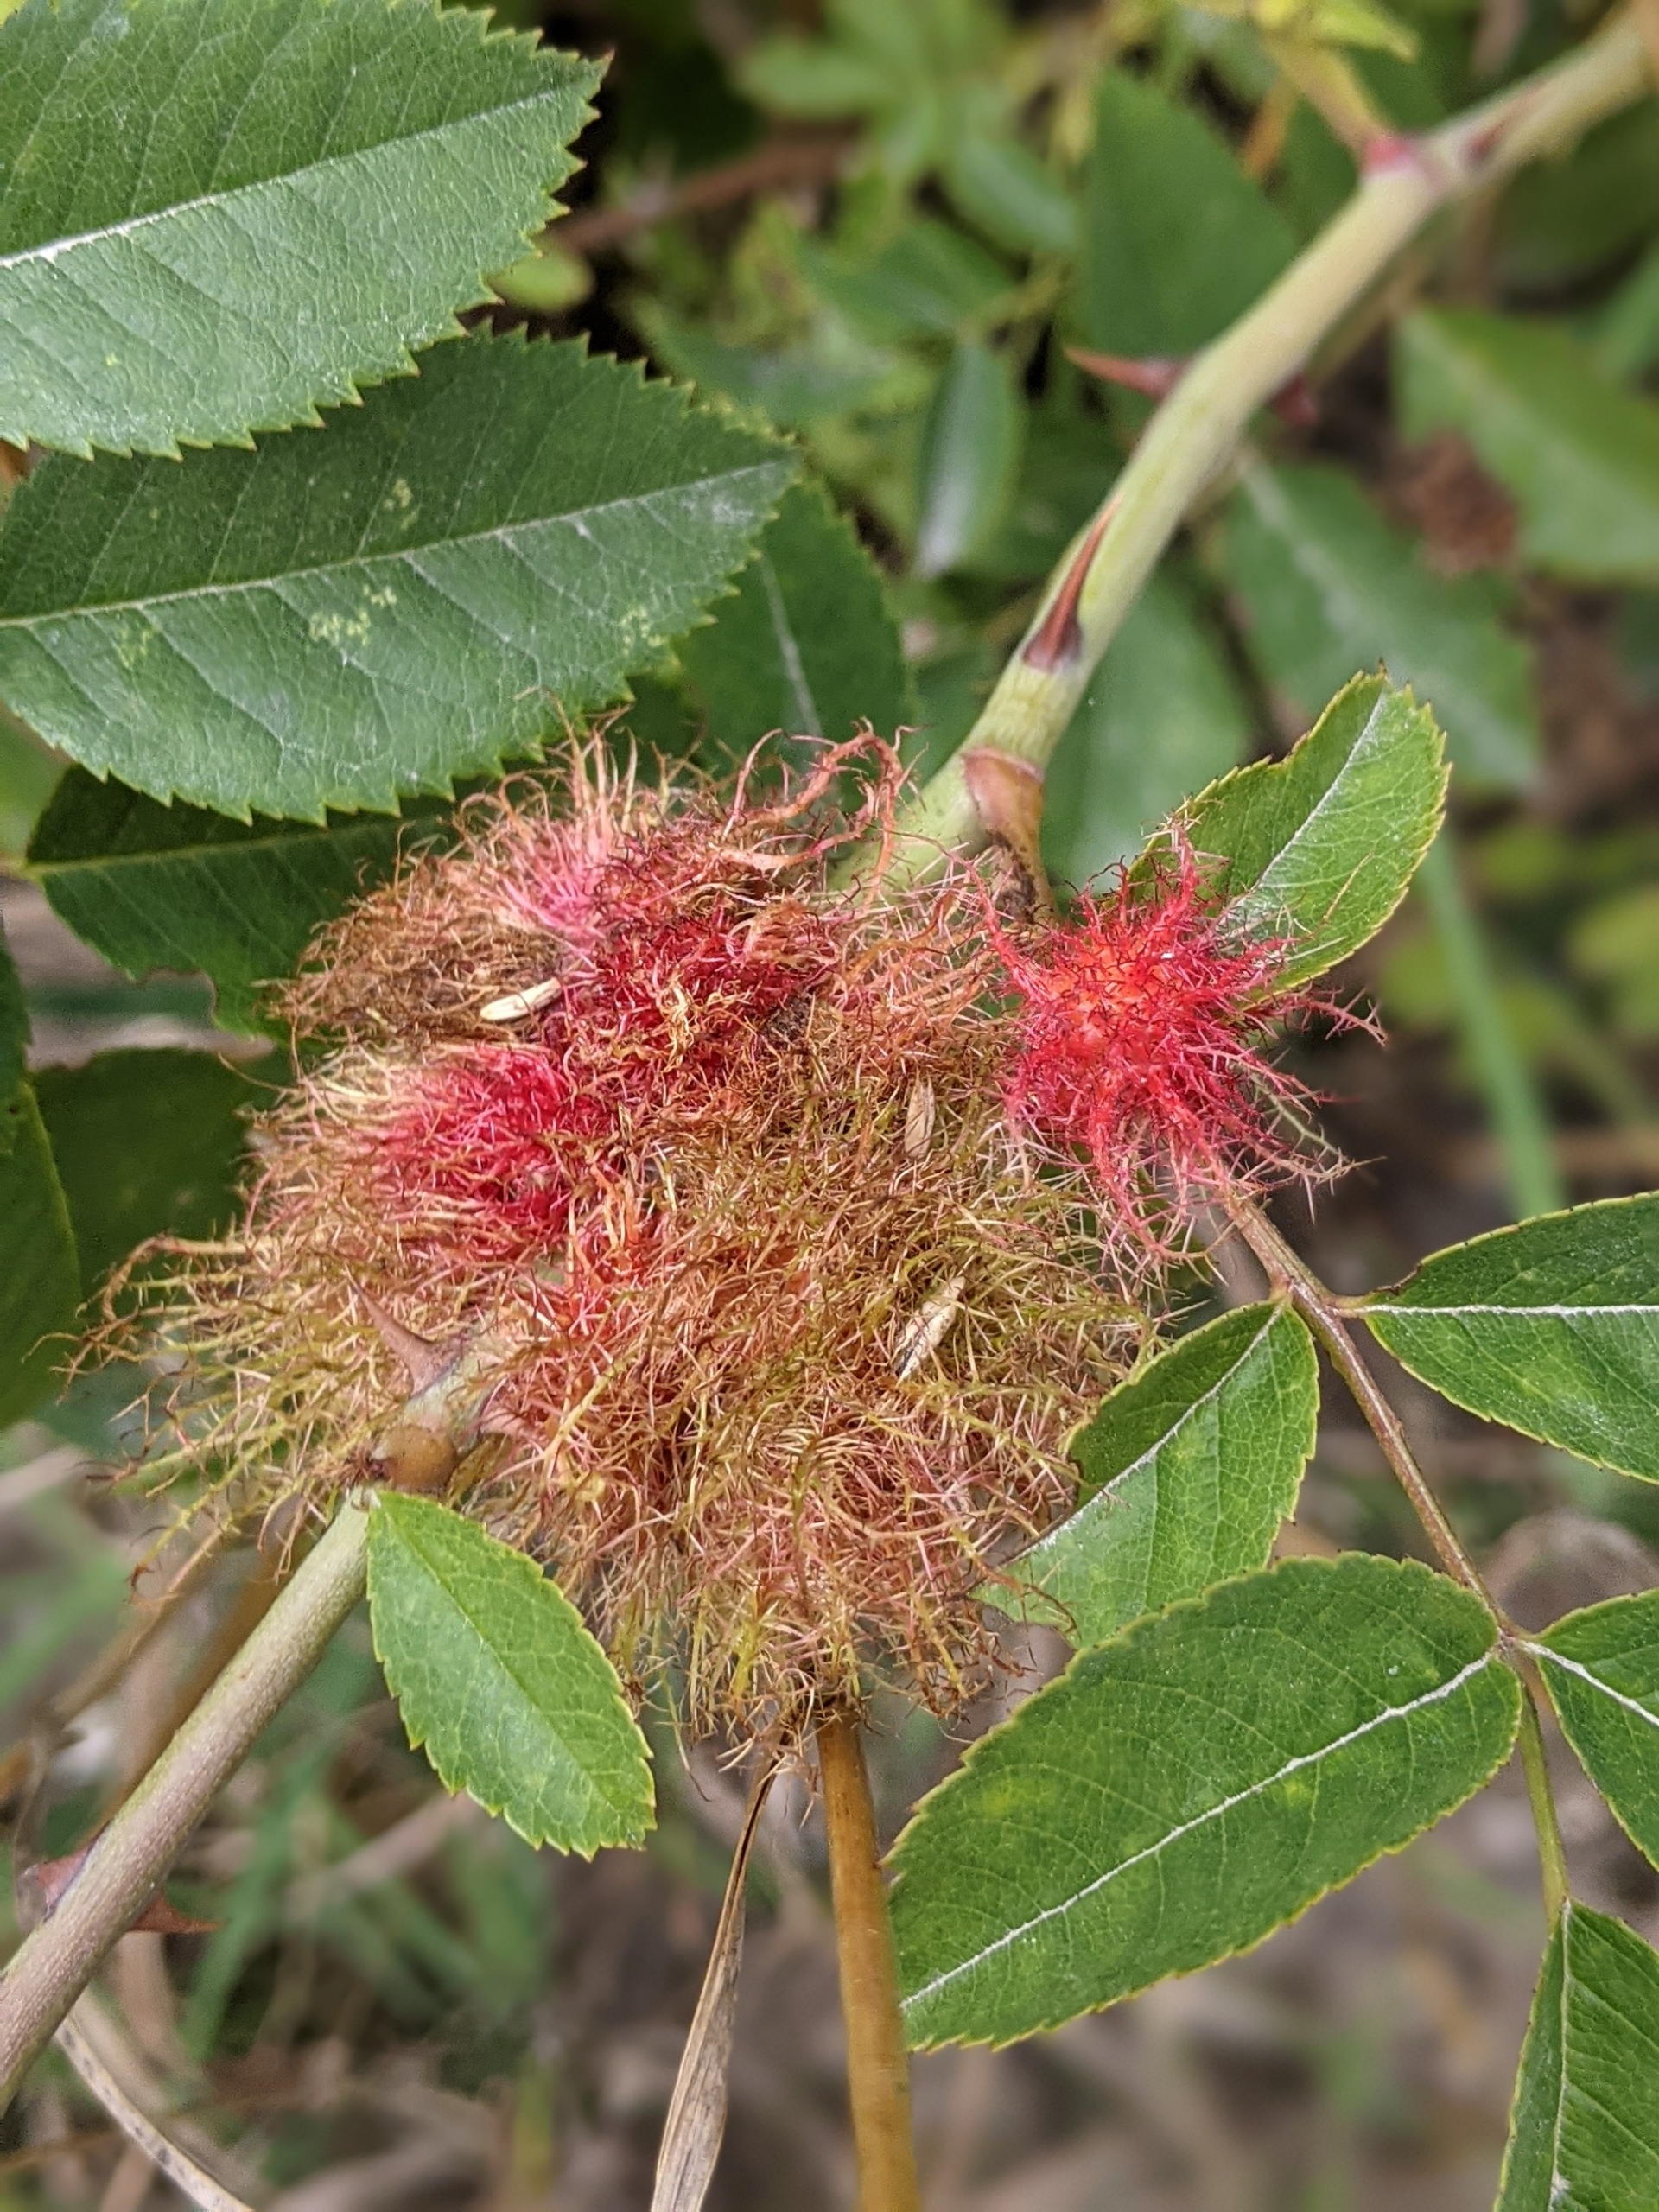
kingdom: Animalia
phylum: Arthropoda
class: Insecta
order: Hymenoptera
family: Cynipidae
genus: Diplolepis
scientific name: Diplolepis rosae
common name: Bedeguargalhveps
